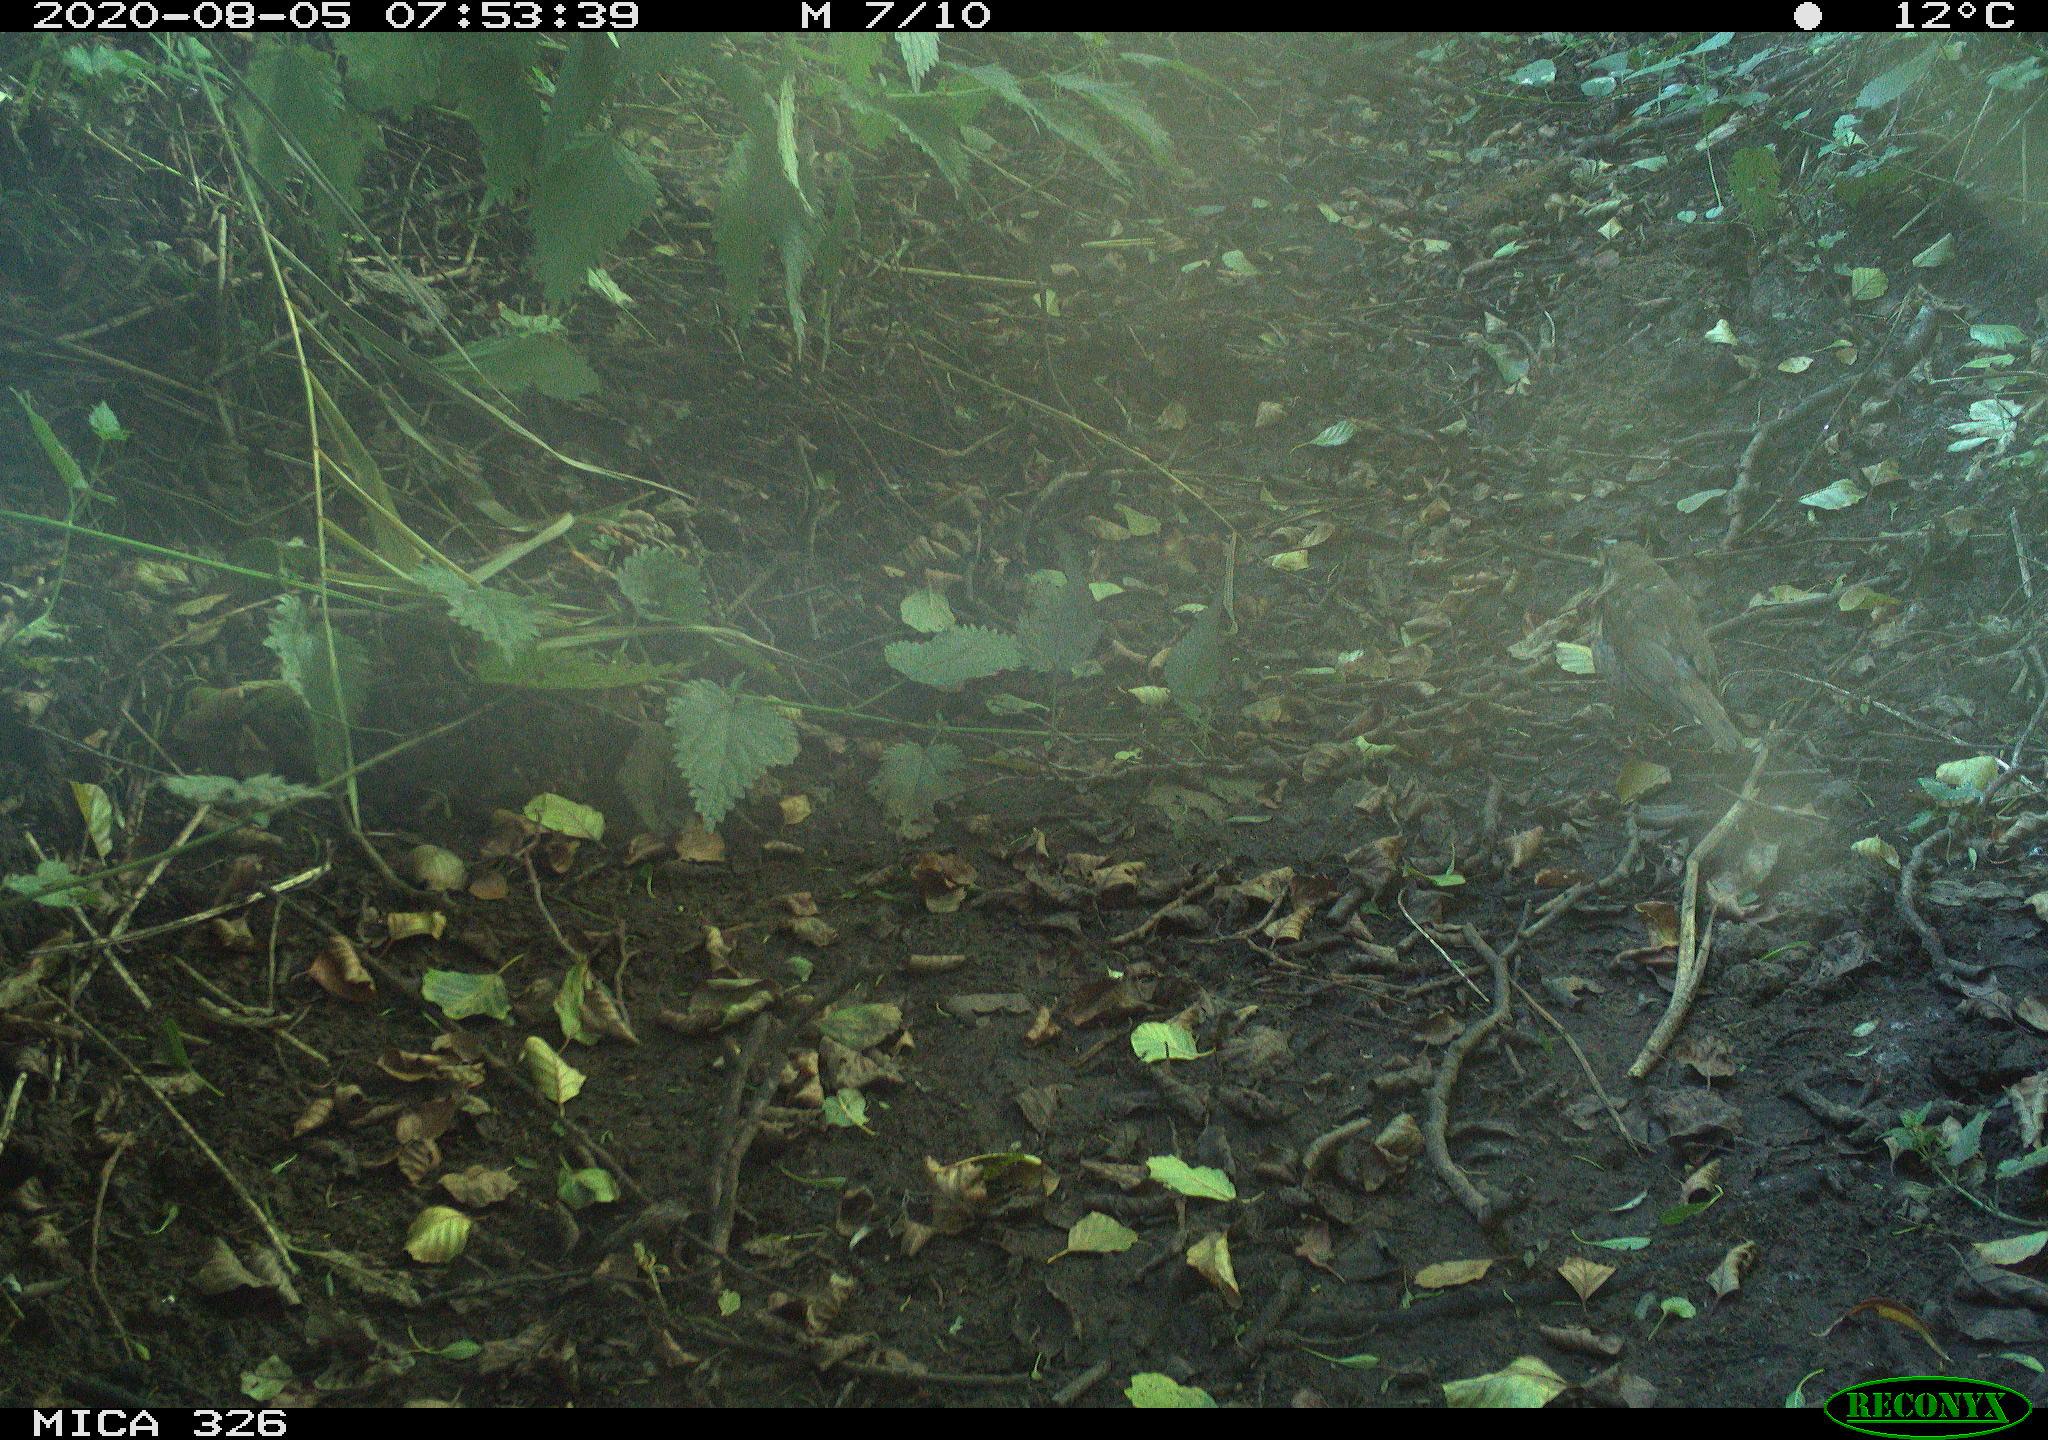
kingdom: Animalia
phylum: Chordata
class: Aves
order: Passeriformes
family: Turdidae
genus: Turdus
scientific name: Turdus philomelos
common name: Song thrush
